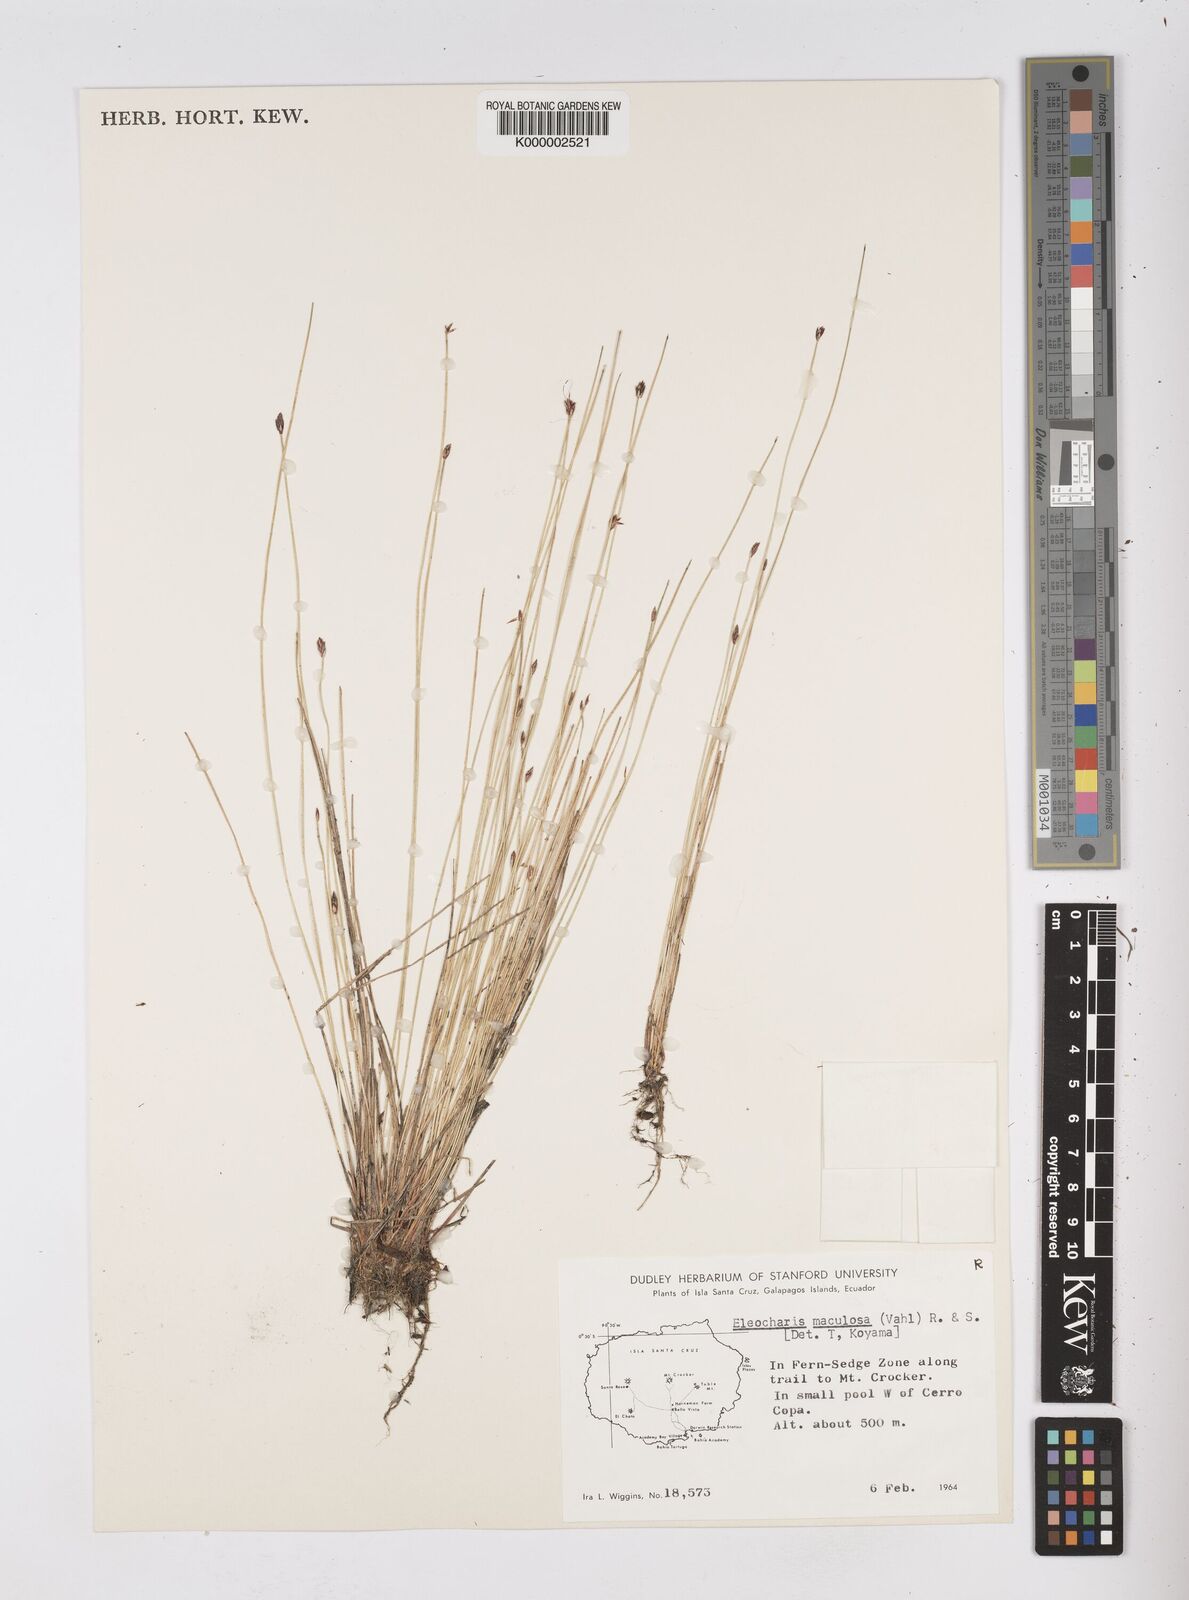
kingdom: Plantae
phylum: Tracheophyta
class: Liliopsida
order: Poales
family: Cyperaceae
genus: Eleocharis
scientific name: Eleocharis maculosa
